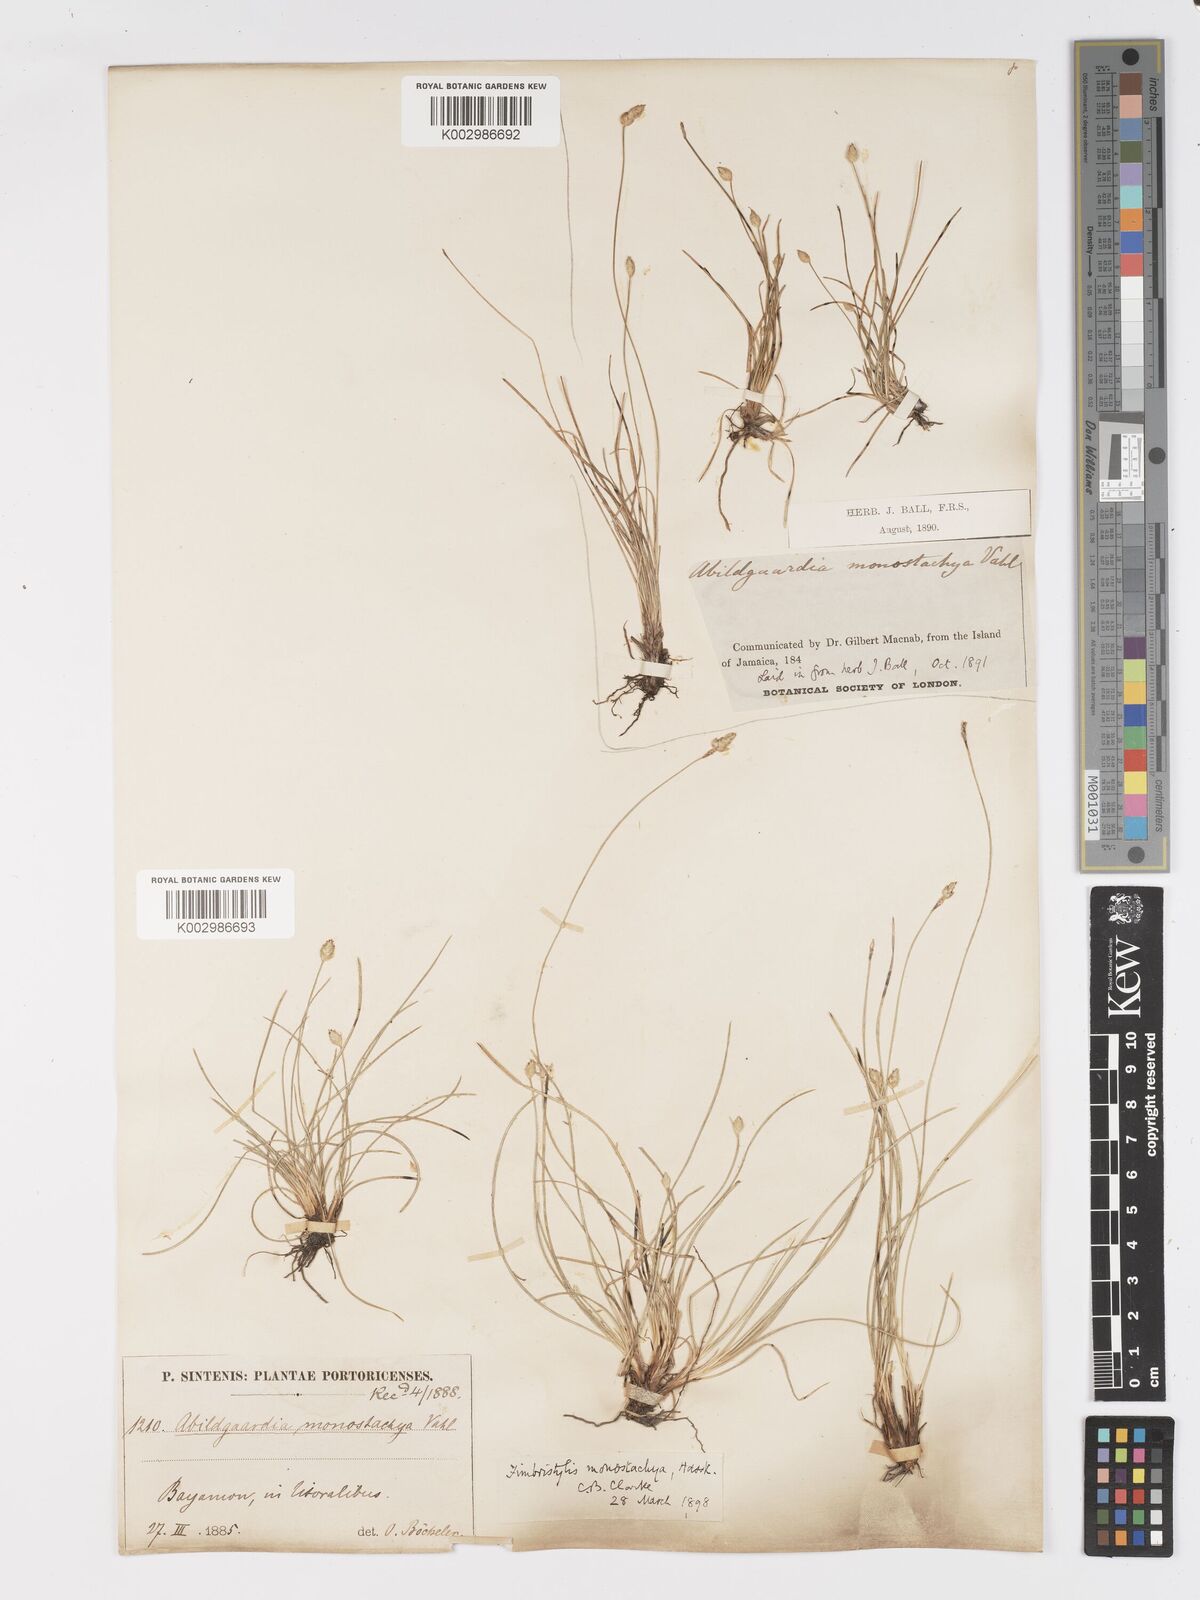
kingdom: Plantae
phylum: Tracheophyta
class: Liliopsida
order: Poales
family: Cyperaceae
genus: Abildgaardia
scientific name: Abildgaardia ovata
